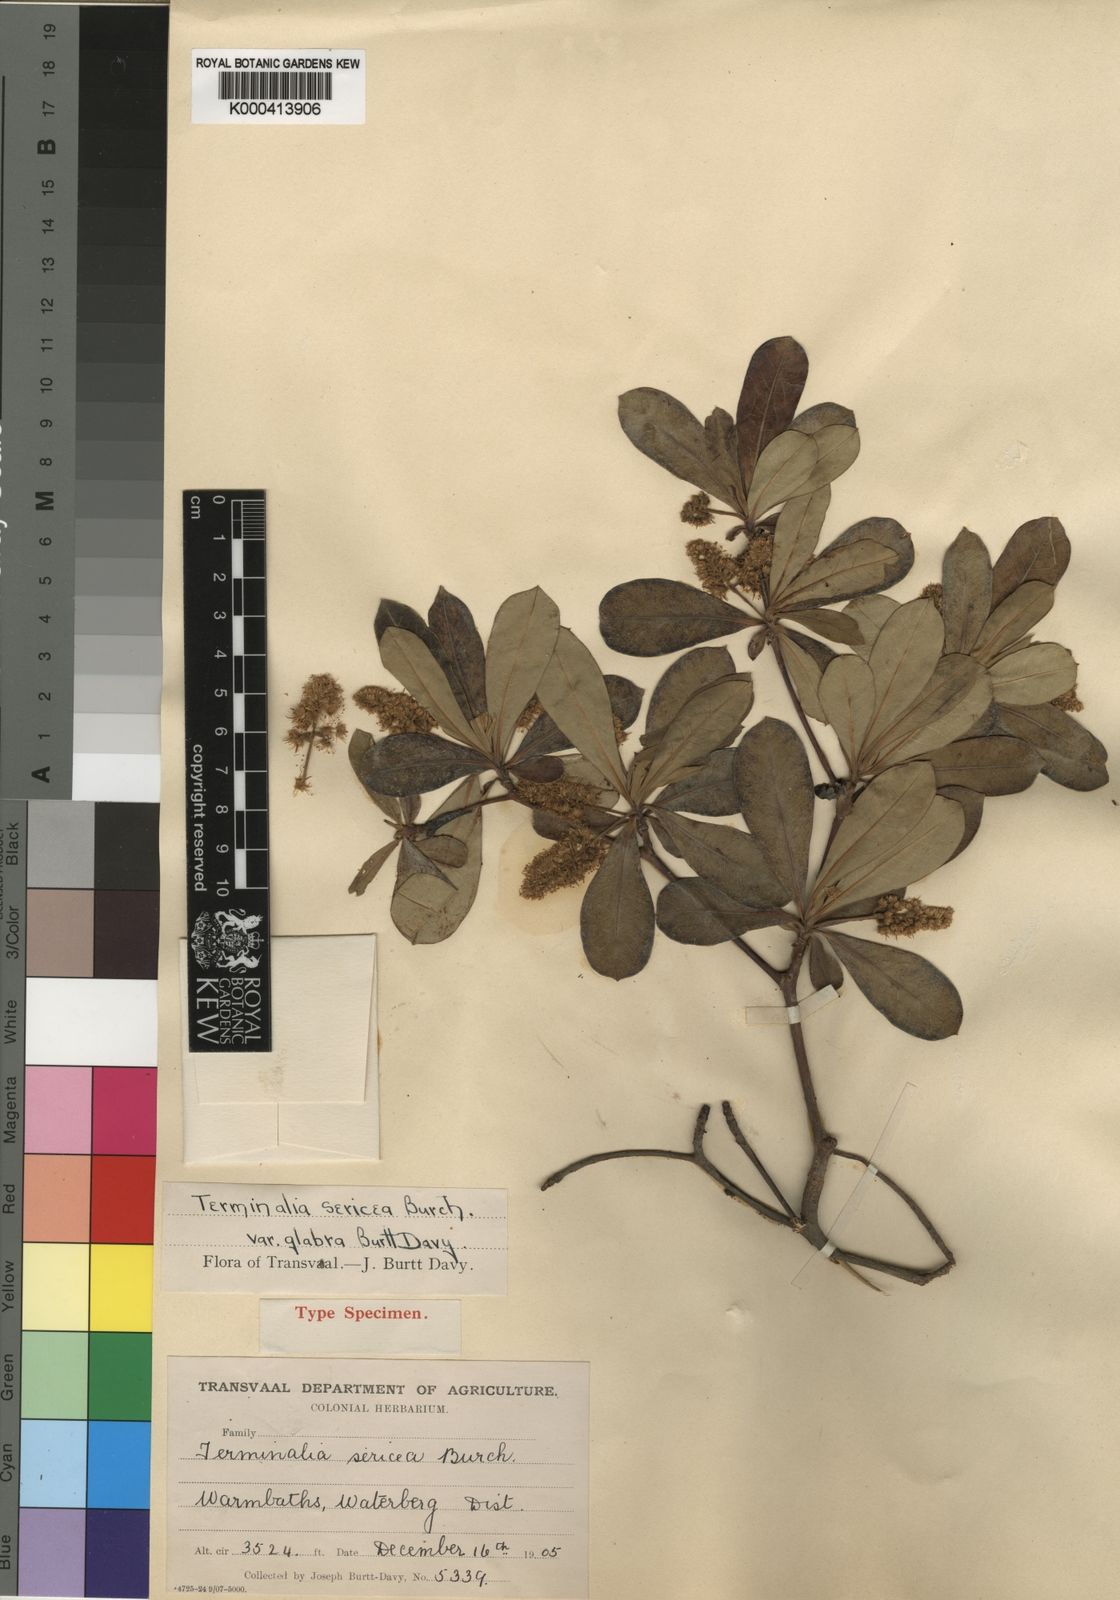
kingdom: Plantae
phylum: Tracheophyta
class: Magnoliopsida
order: Myrtales
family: Combretaceae
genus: Terminalia
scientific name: Terminalia sericea
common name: Clusterleaf
